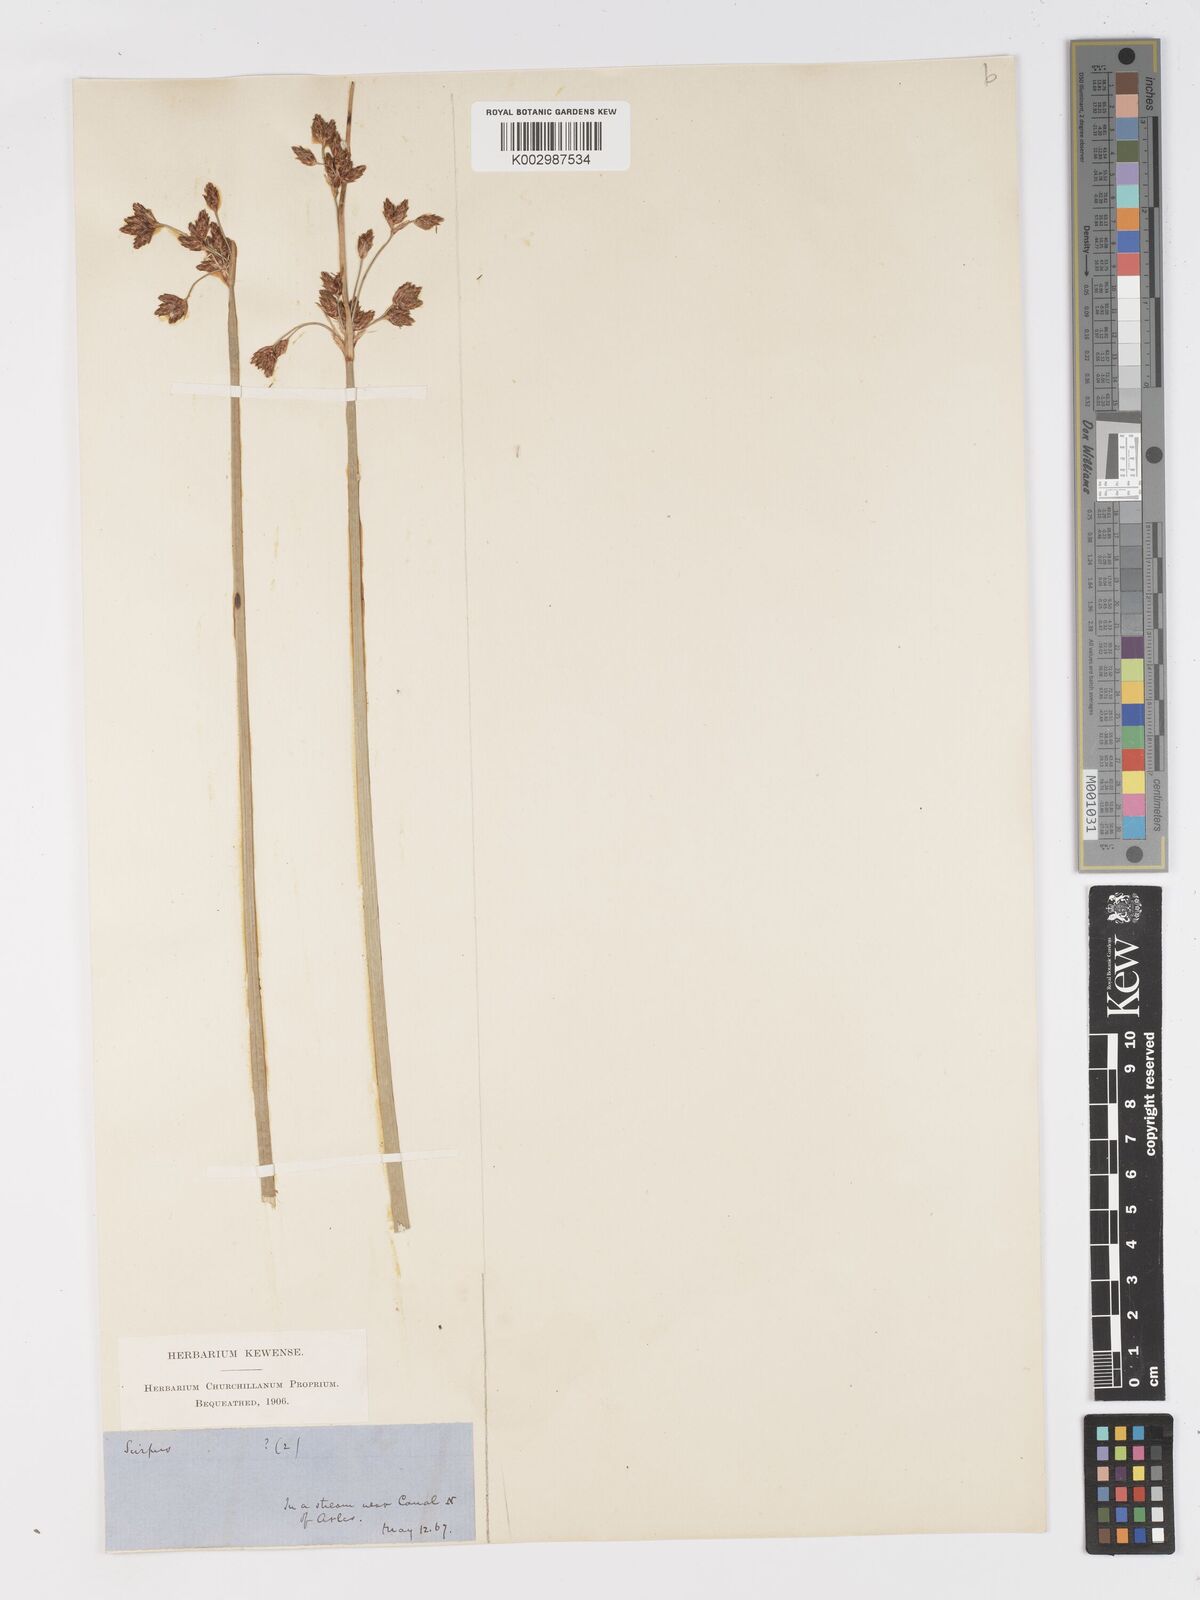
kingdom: Plantae
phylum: Tracheophyta
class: Liliopsida
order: Poales
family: Cyperaceae
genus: Schoenoplectus
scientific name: Schoenoplectus lacustris
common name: Common club-rush
